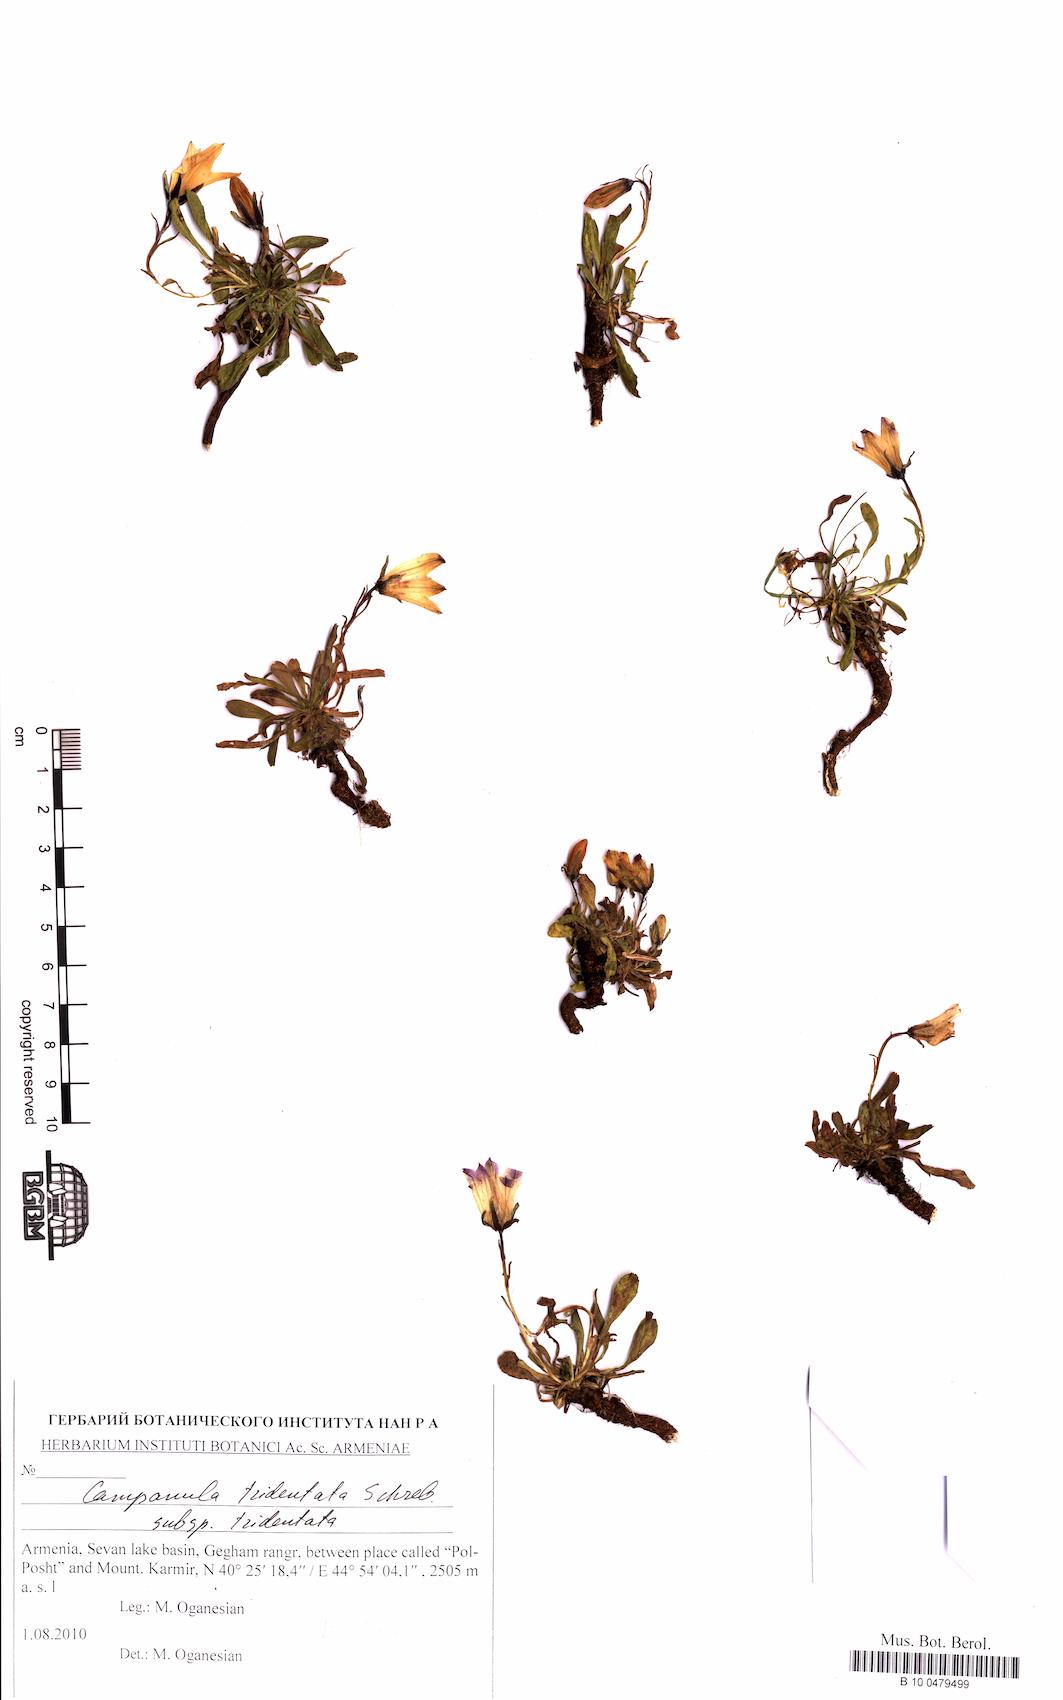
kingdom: Plantae
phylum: Tracheophyta
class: Magnoliopsida
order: Asterales
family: Campanulaceae
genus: Campanula
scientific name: Campanula tridentata
